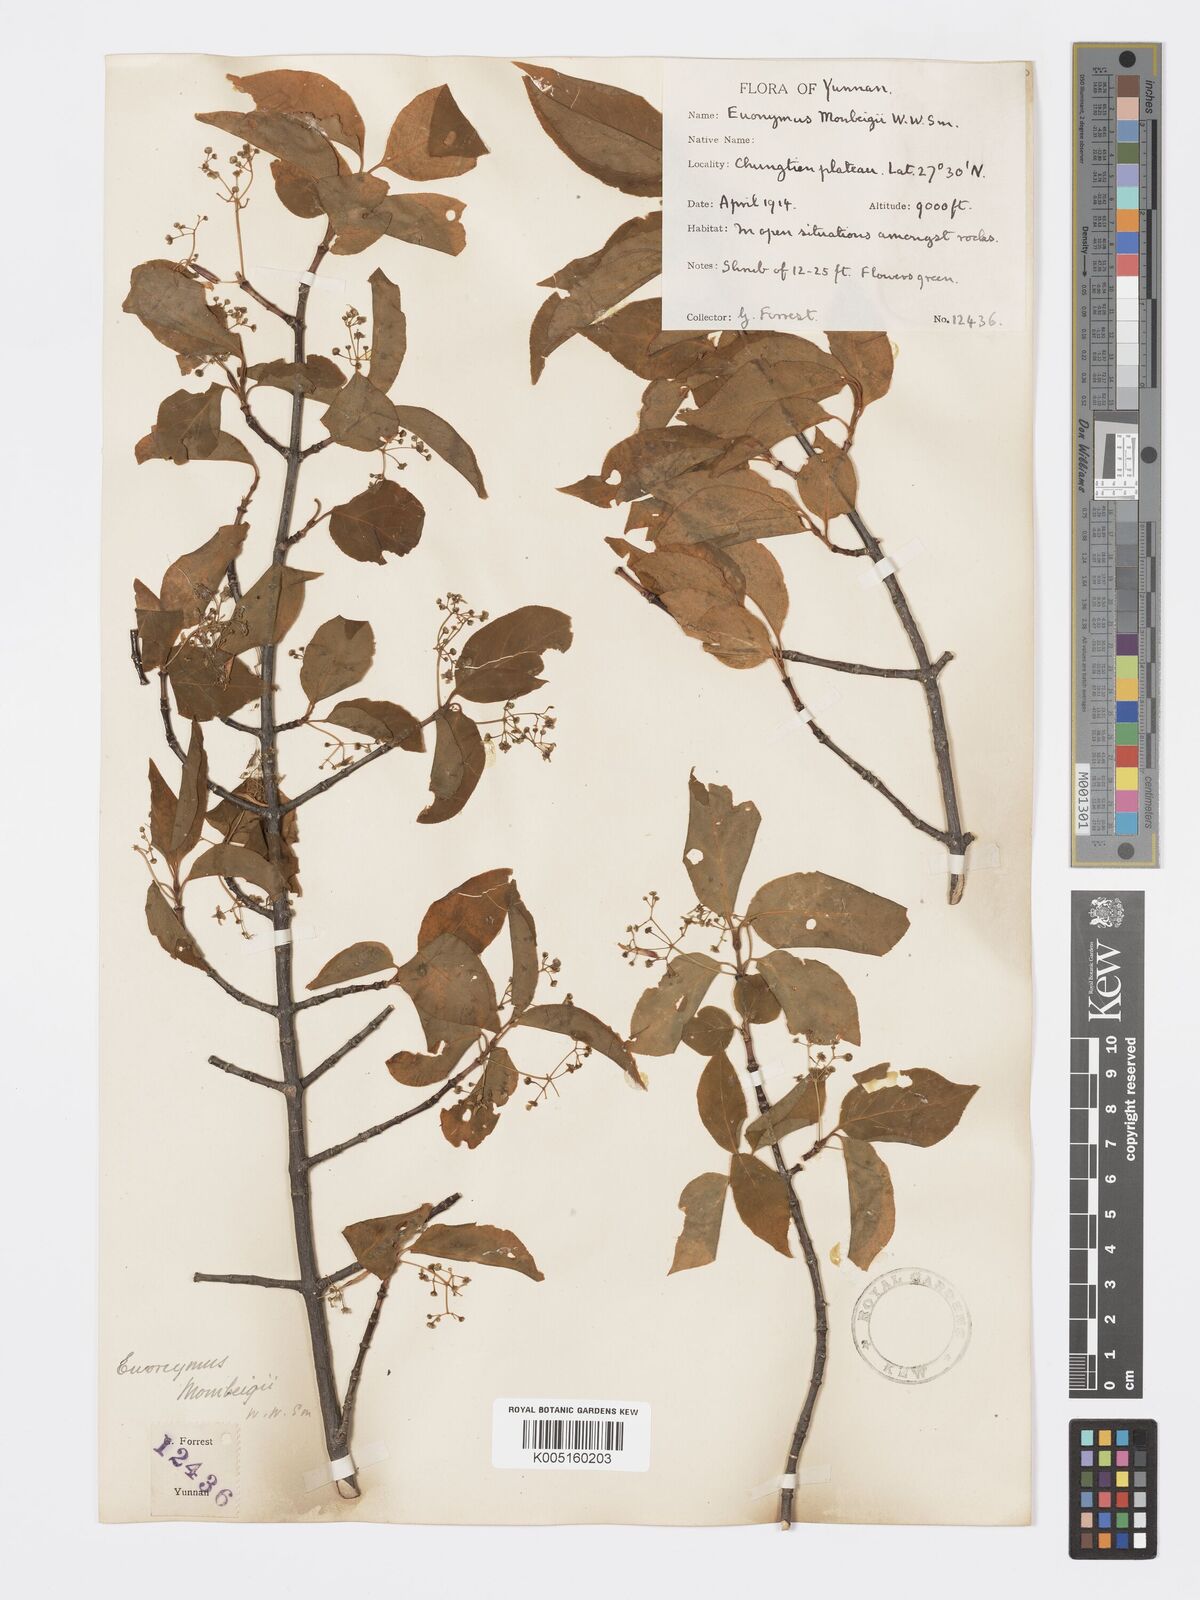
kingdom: Plantae
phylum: Tracheophyta
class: Magnoliopsida
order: Celastrales
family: Celastraceae
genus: Euonymus
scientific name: Euonymus sanguineus
